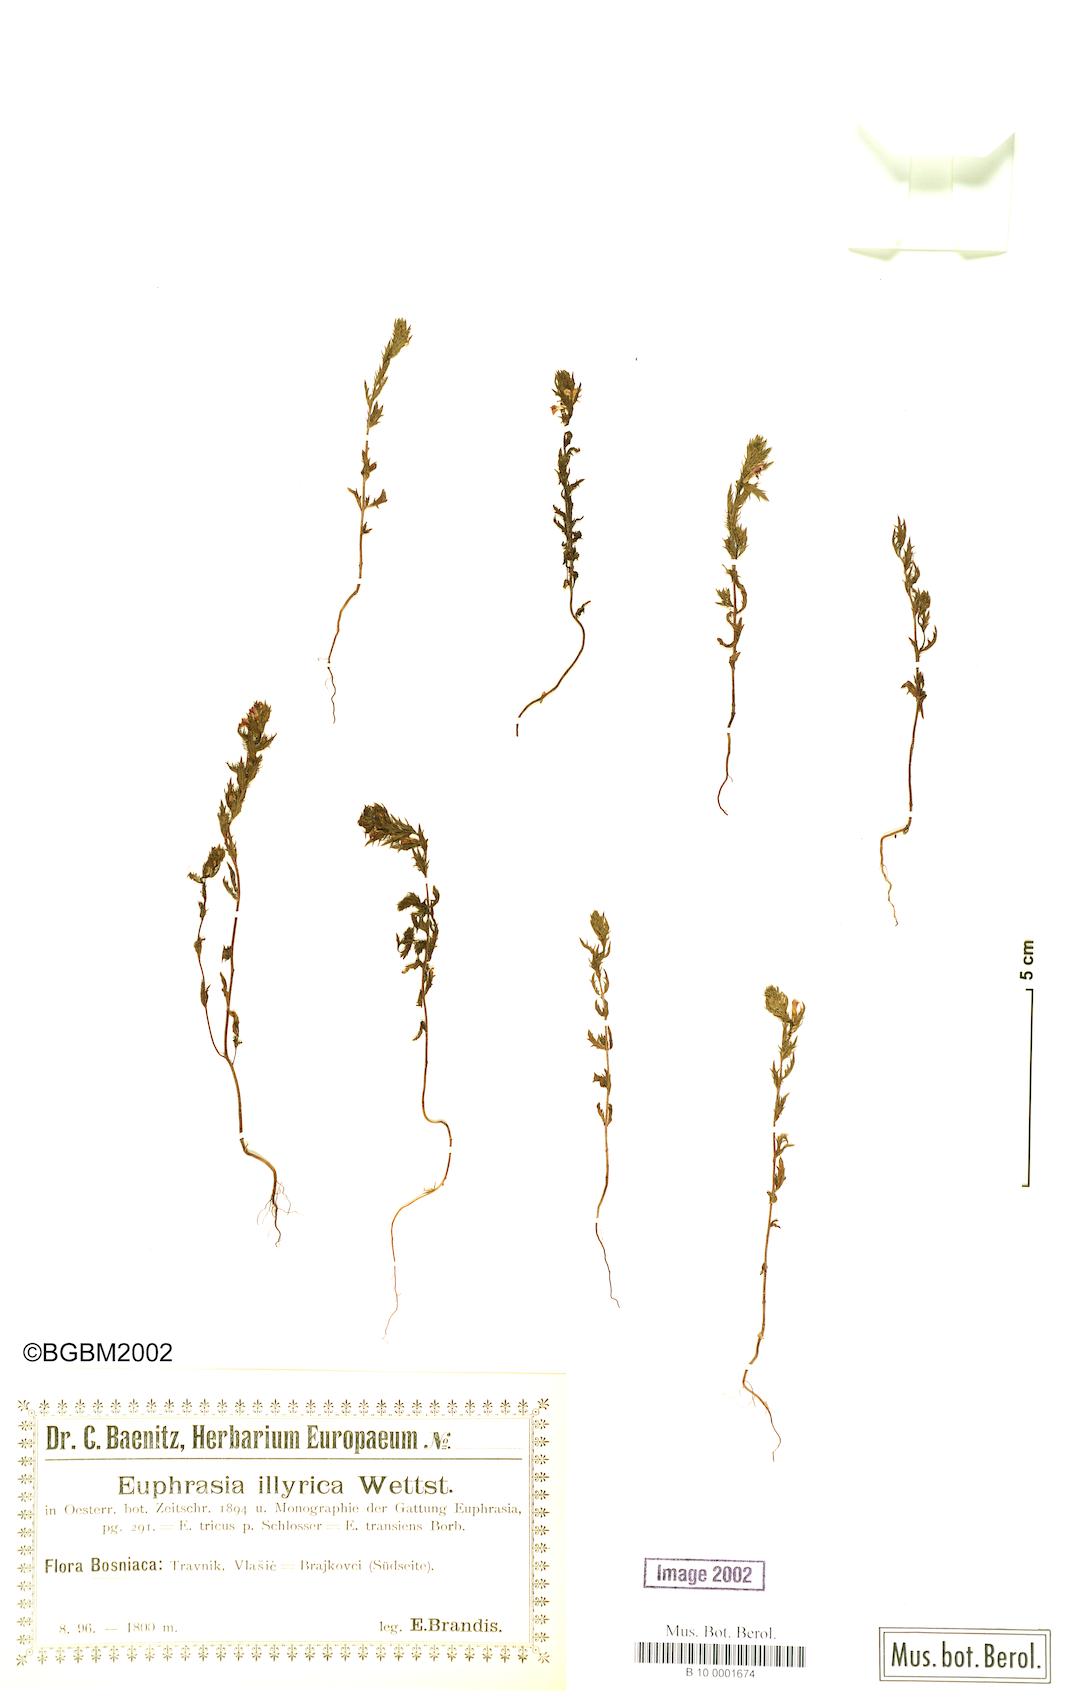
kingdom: Plantae
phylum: Tracheophyta
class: Magnoliopsida
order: Lamiales
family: Orobanchaceae
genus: Euphrasia
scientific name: Euphrasia illyrica
